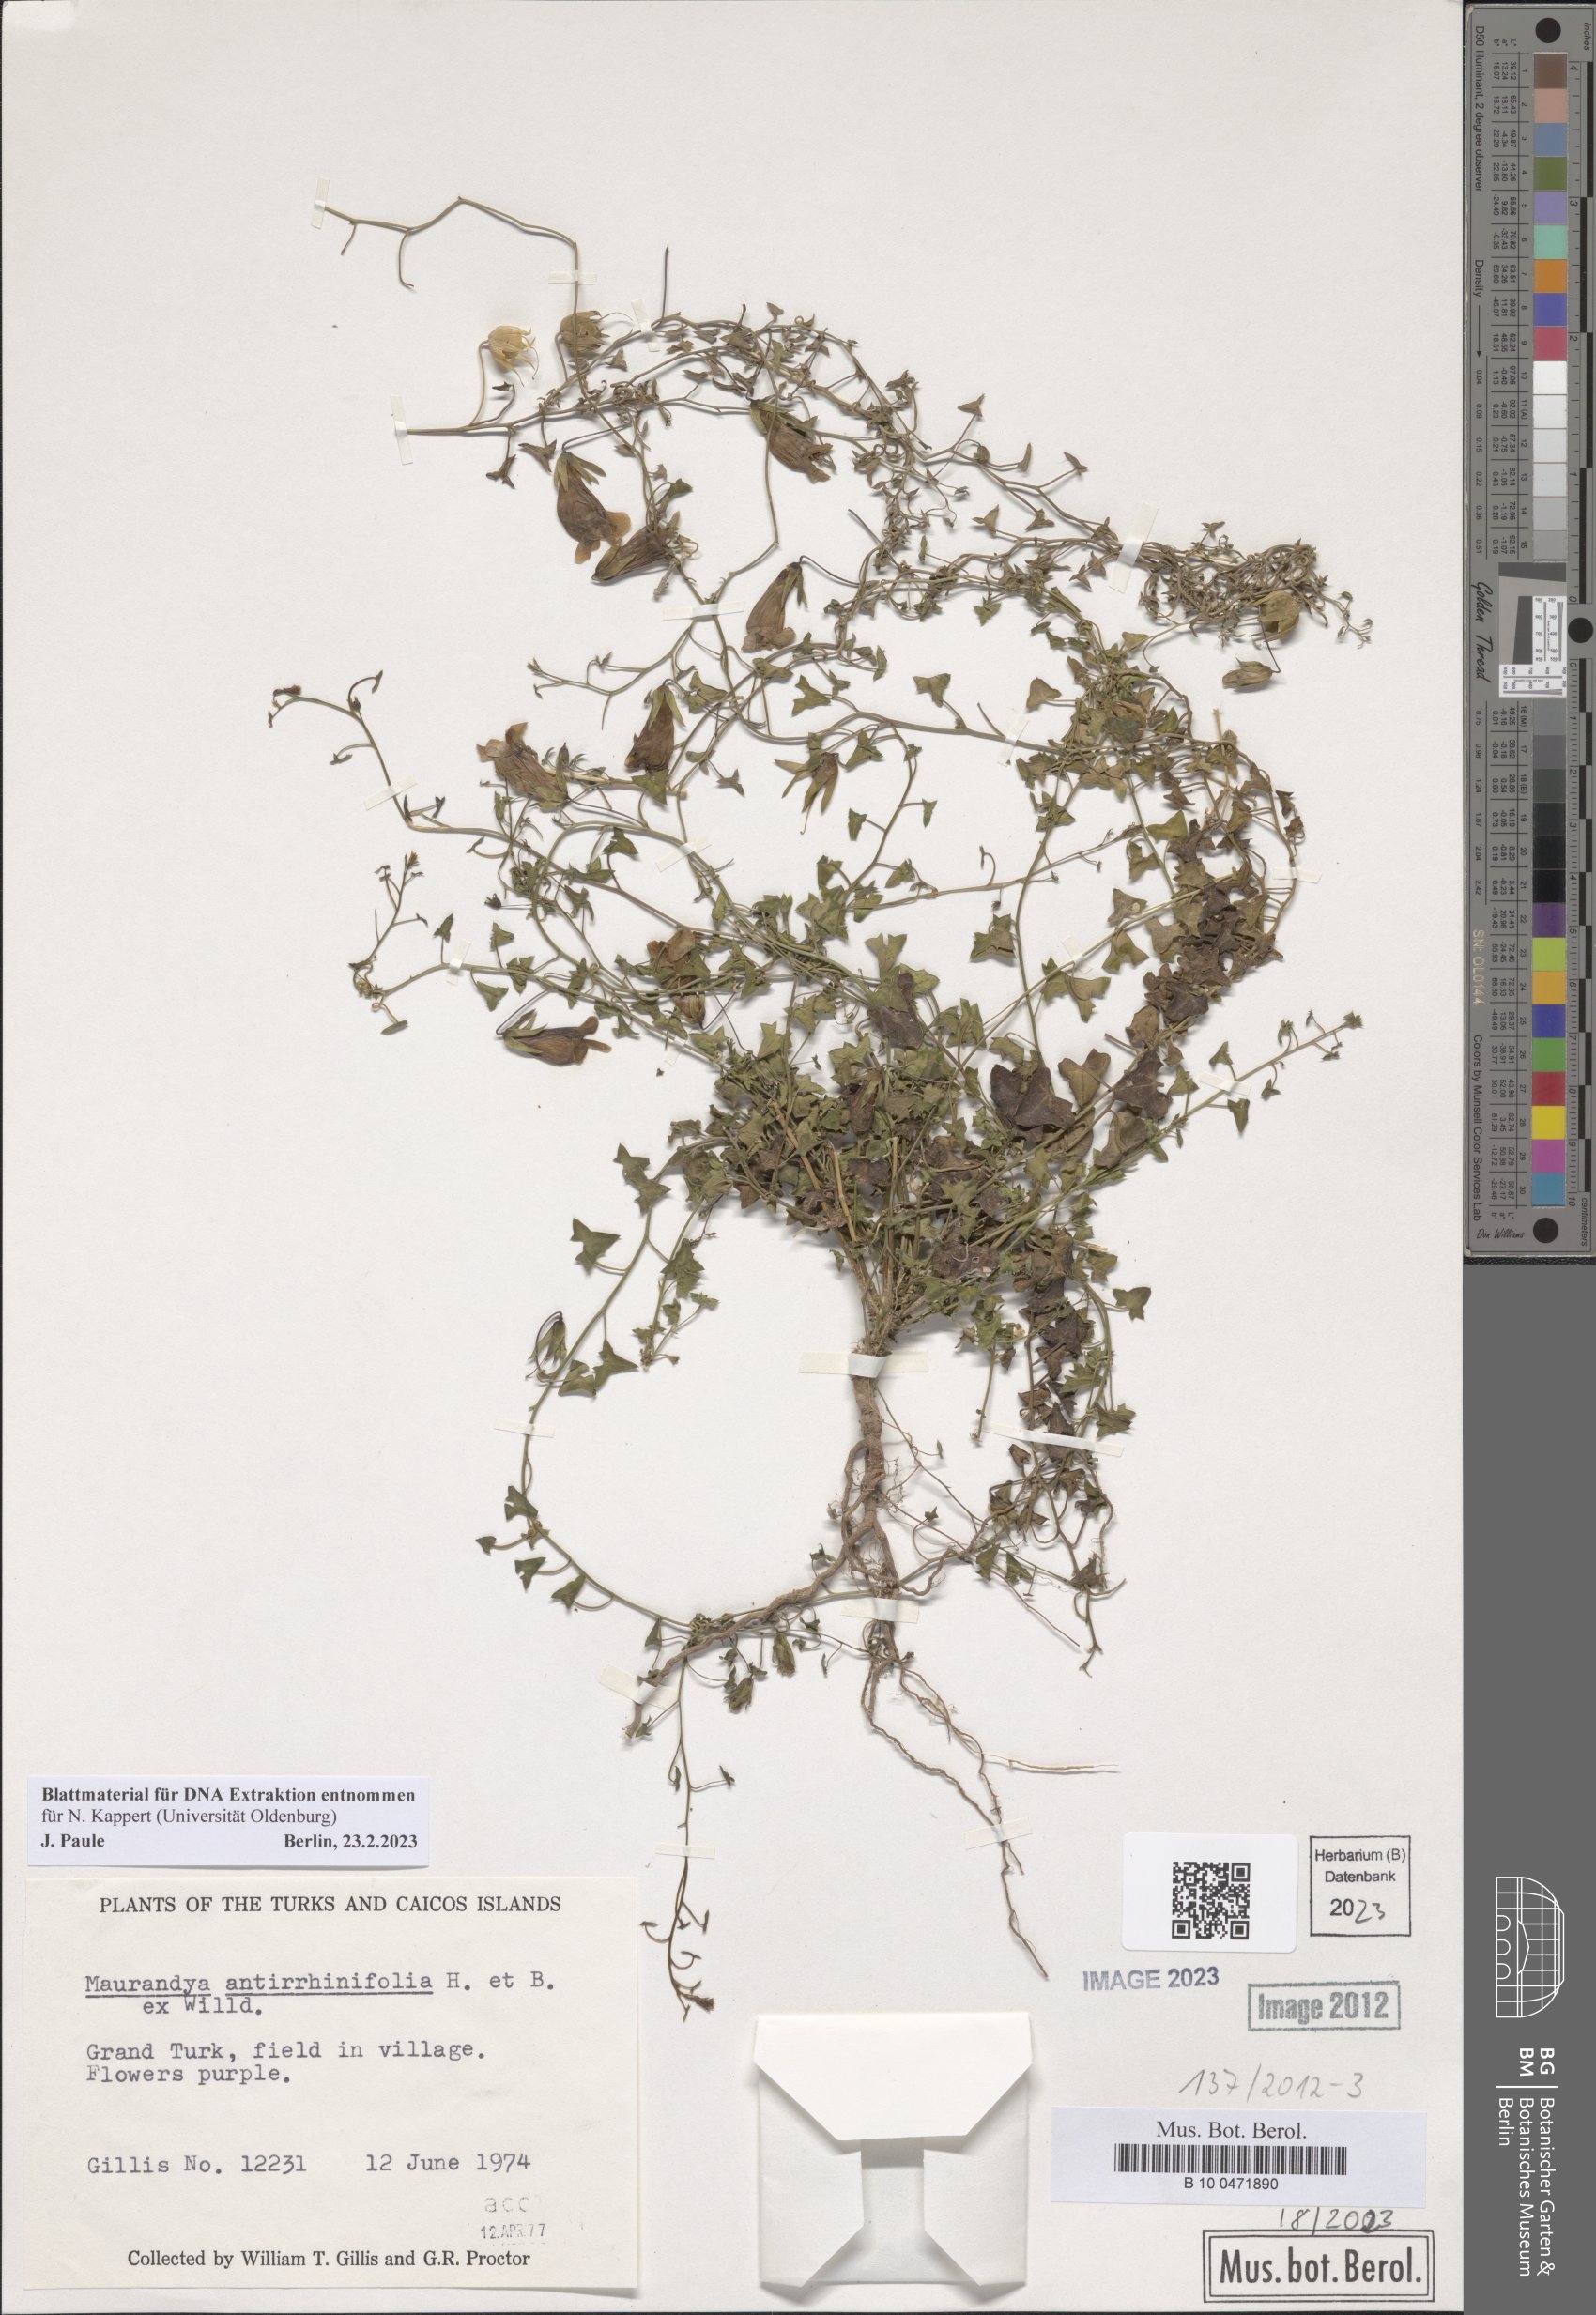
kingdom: Plantae
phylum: Tracheophyta
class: Magnoliopsida
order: Lamiales
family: Plantaginaceae
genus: Maurandella
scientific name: Maurandella antirrhiniflora
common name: Violet twining-snapdragon
